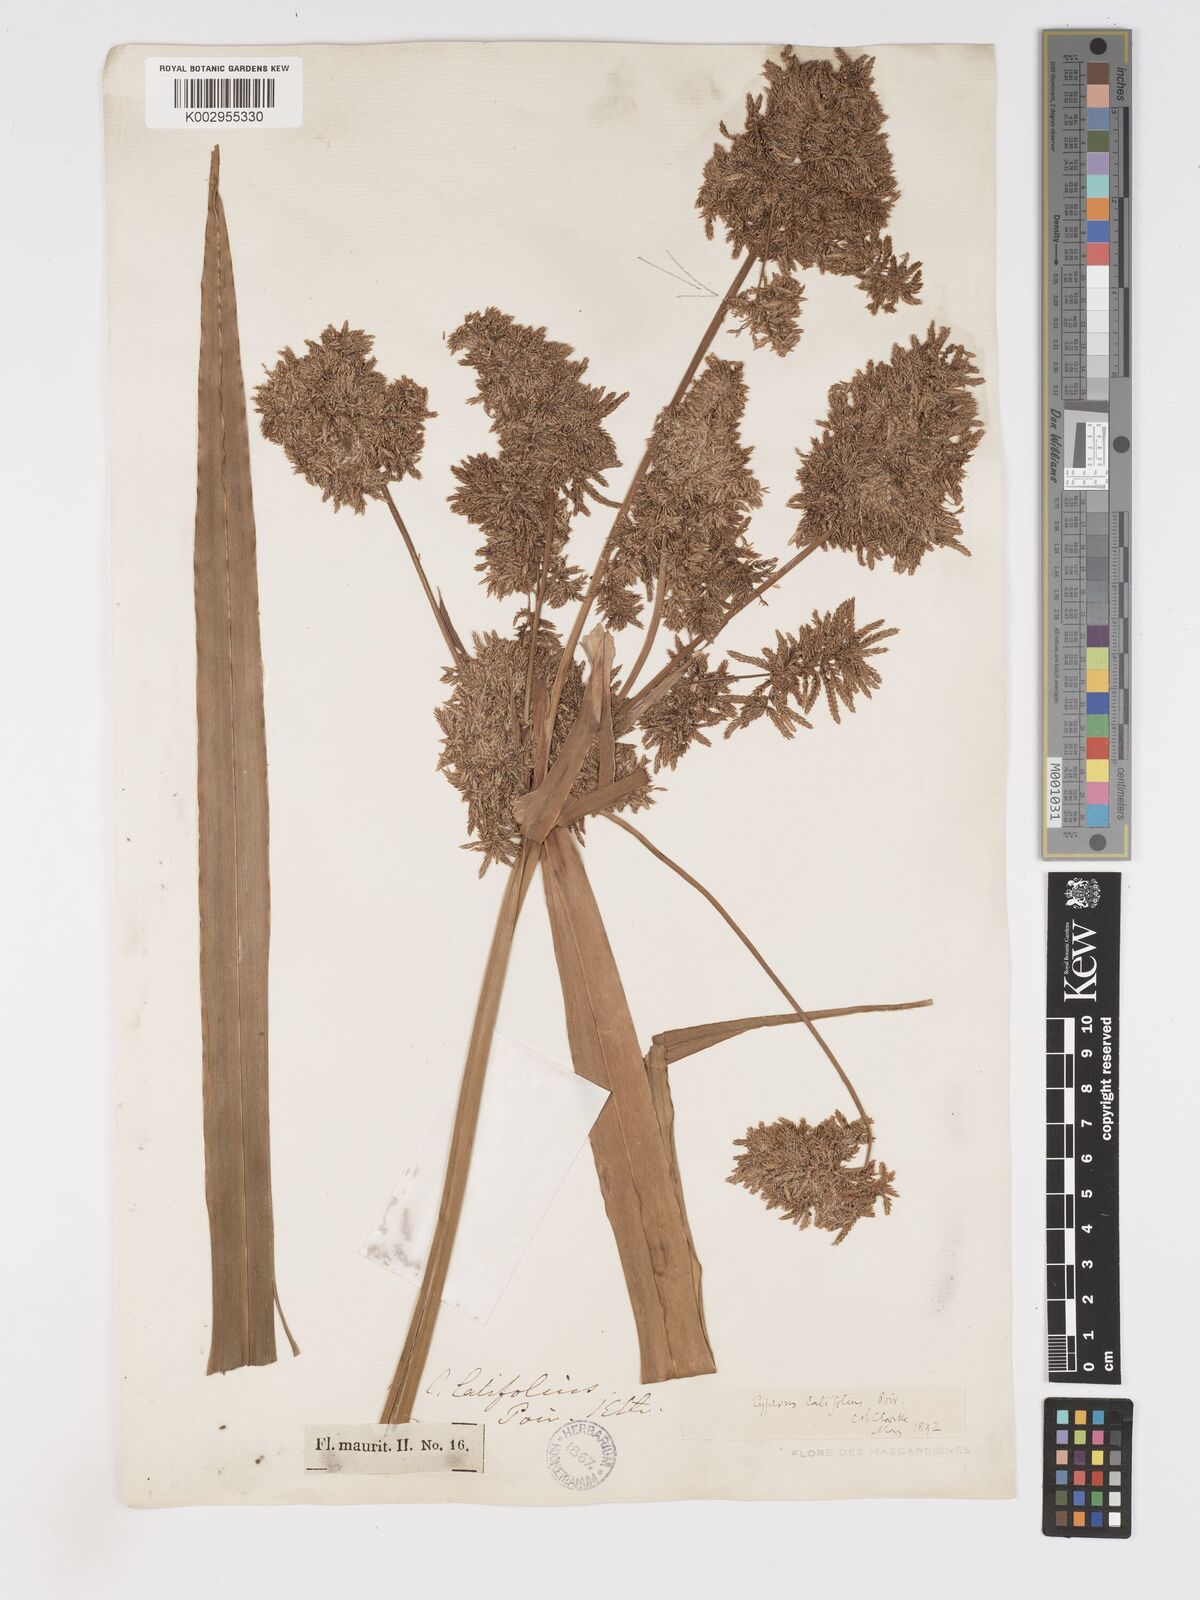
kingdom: Plantae
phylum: Tracheophyta
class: Liliopsida
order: Poales
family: Cyperaceae
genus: Cyperus
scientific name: Cyperus latifolius
